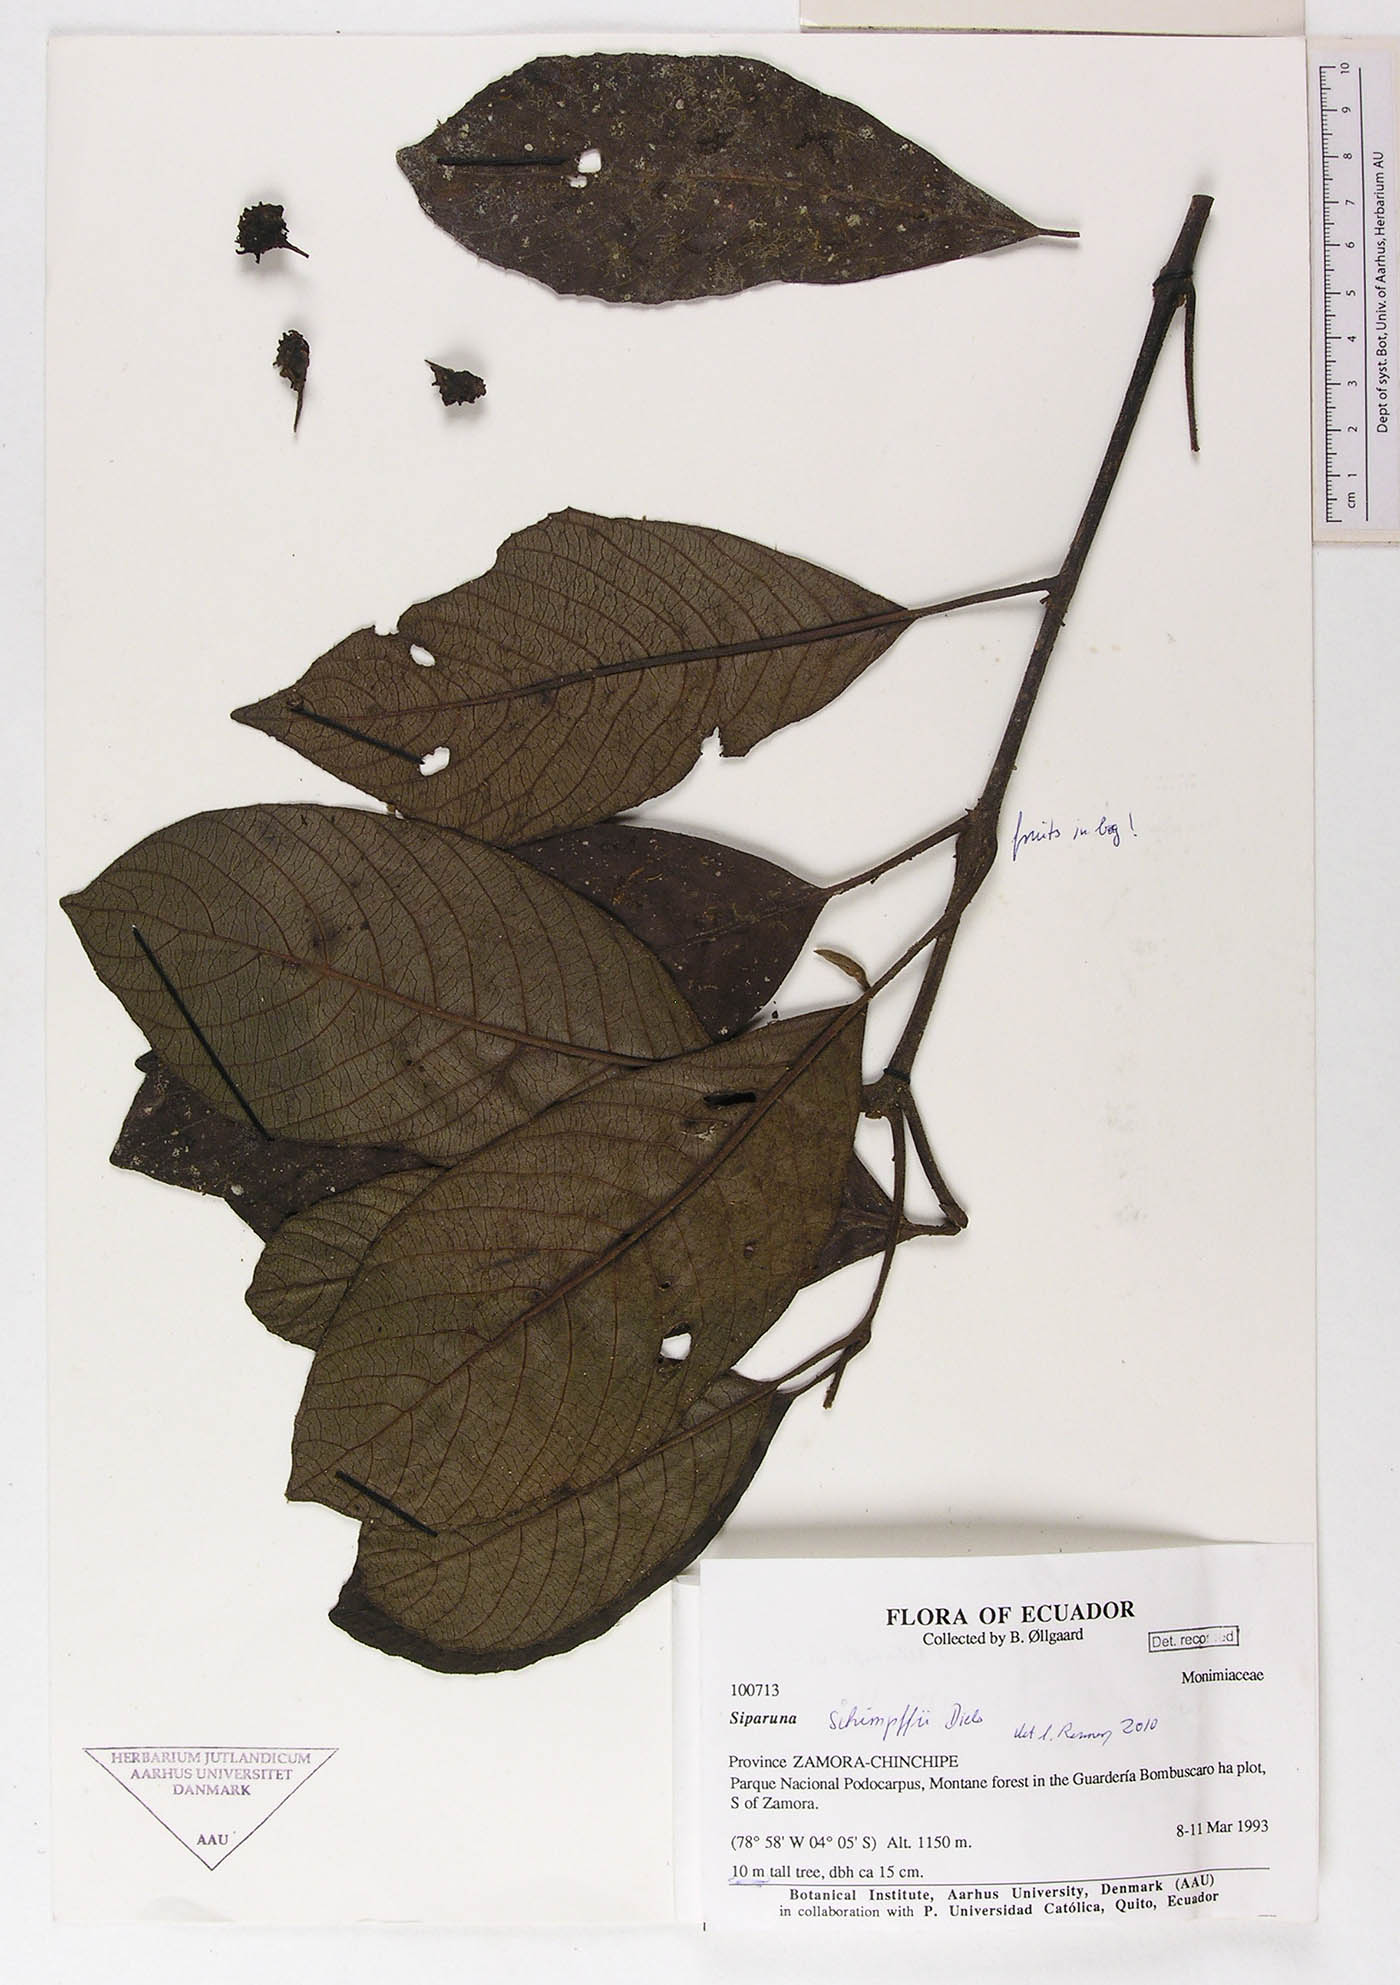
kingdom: Plantae
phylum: Tracheophyta
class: Magnoliopsida
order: Laurales
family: Siparunaceae
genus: Siparuna
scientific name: Siparuna schimpffii
